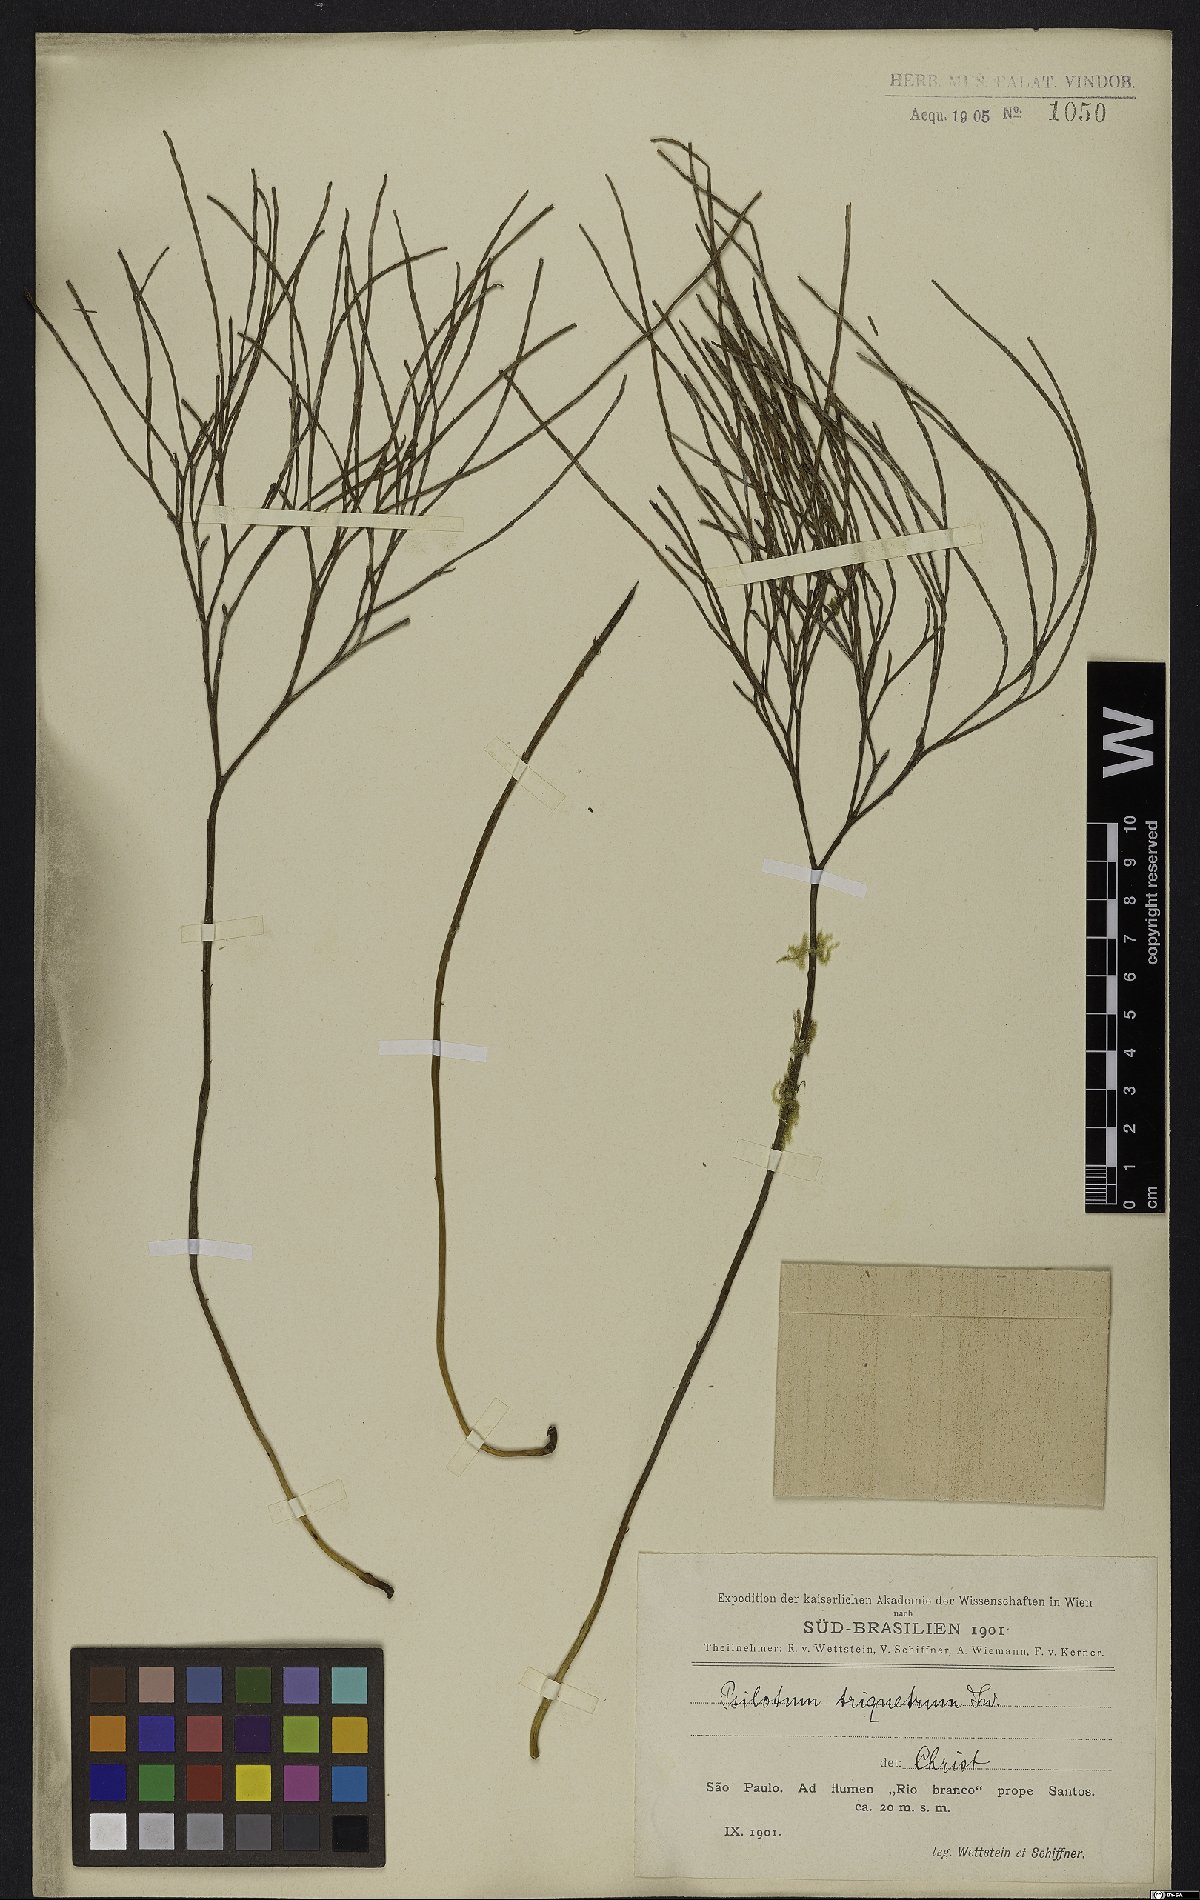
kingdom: Plantae
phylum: Tracheophyta
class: Polypodiopsida
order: Psilotales
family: Psilotaceae
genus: Psilotum
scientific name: Psilotum nudum
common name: Skeleton fork fern
